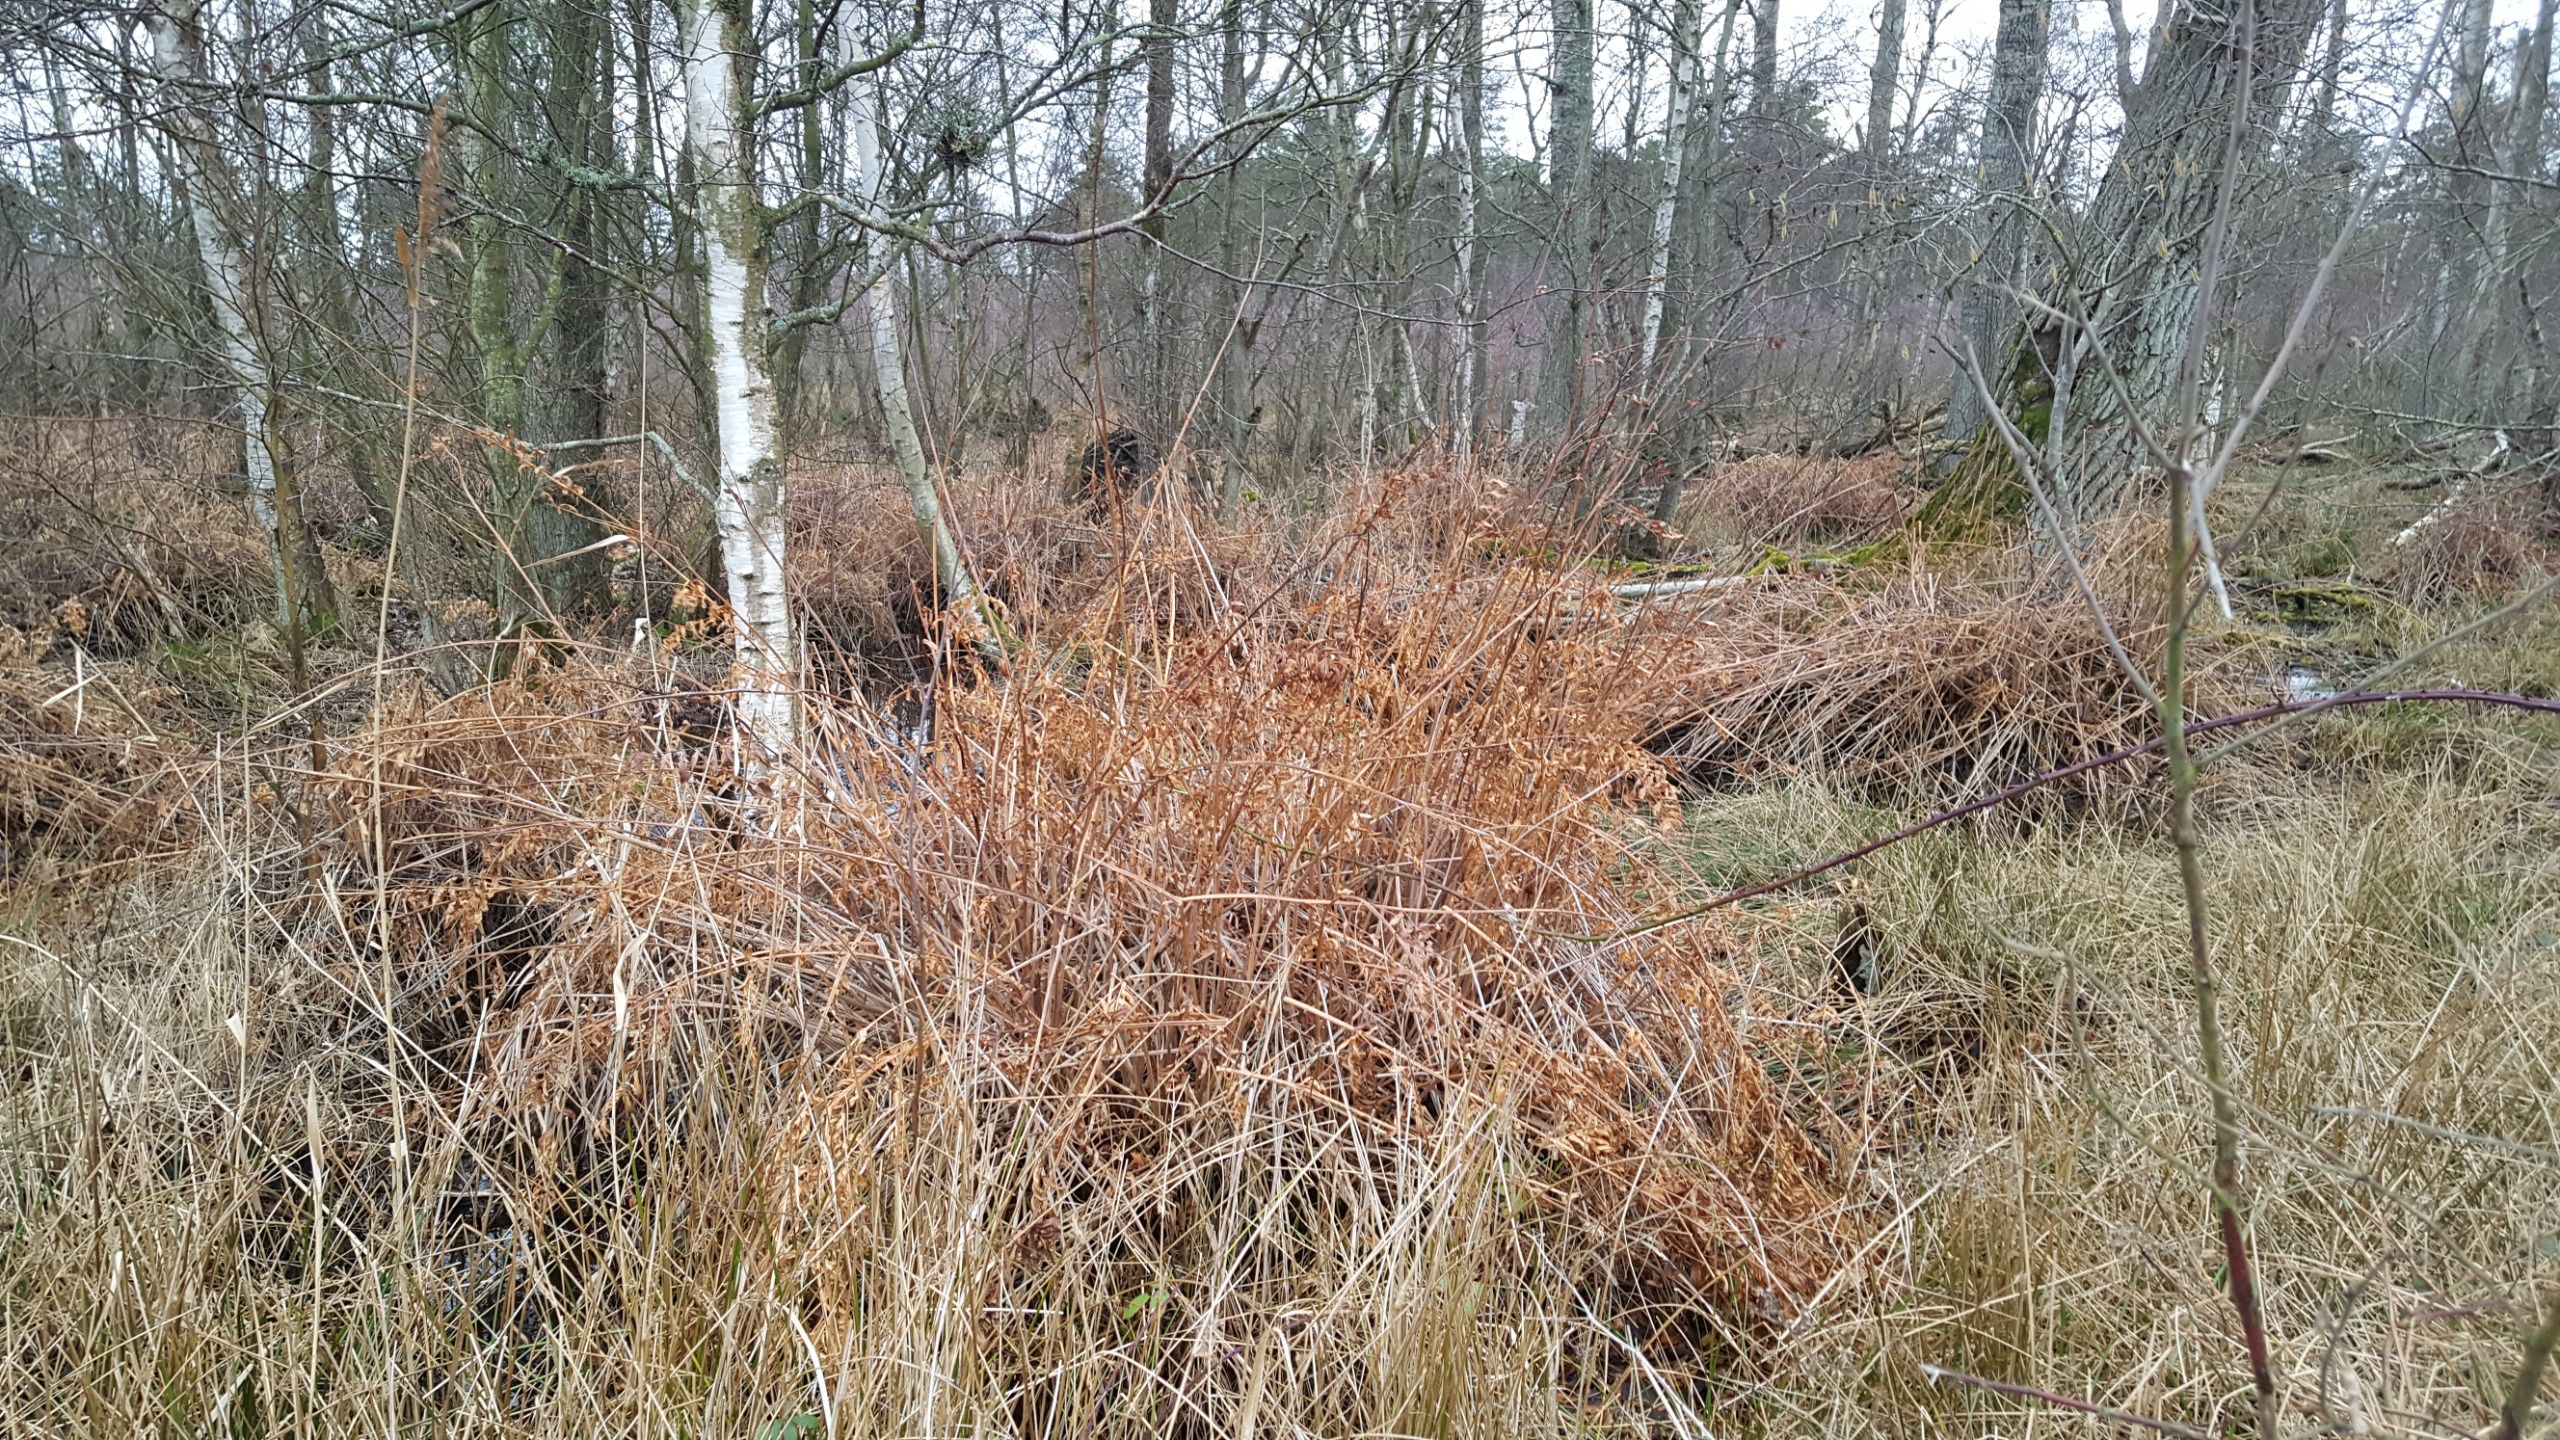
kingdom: Plantae
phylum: Tracheophyta
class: Polypodiopsida
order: Osmundales
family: Osmundaceae
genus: Osmunda
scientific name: Osmunda regalis
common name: Kongebregne
